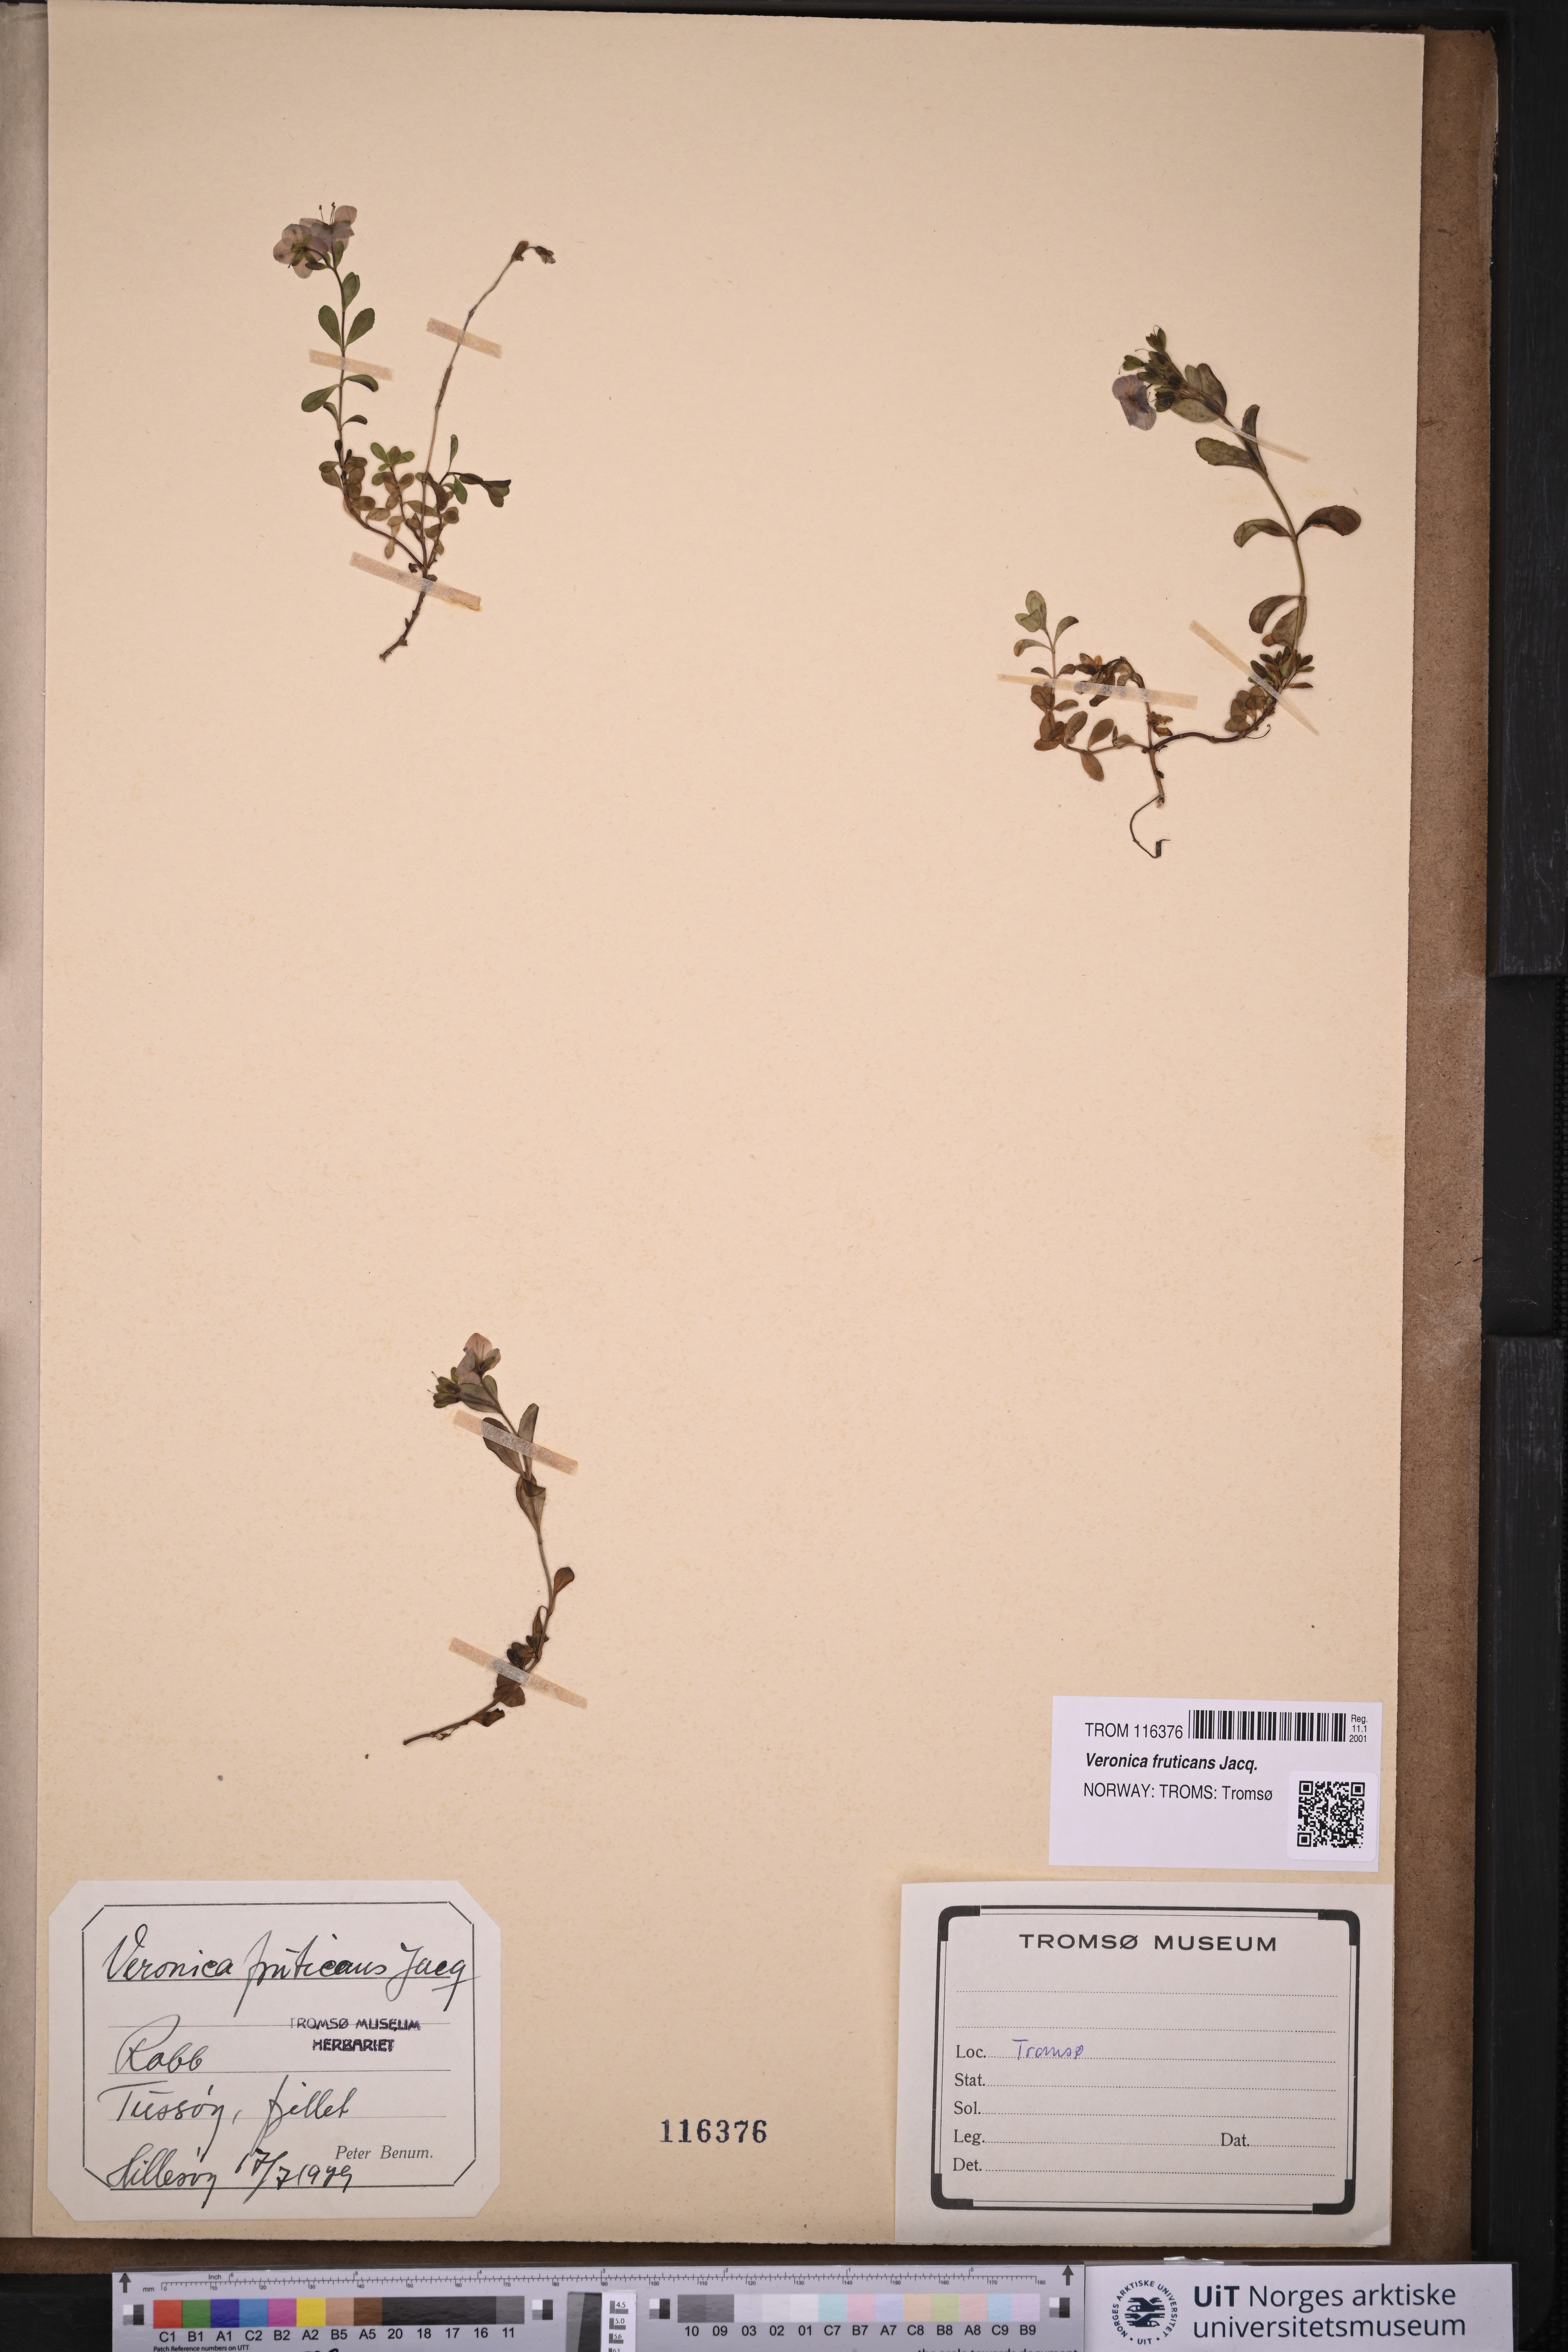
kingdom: Plantae
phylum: Tracheophyta
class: Magnoliopsida
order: Lamiales
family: Plantaginaceae
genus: Veronica
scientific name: Veronica fruticans
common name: Rock speedwell
